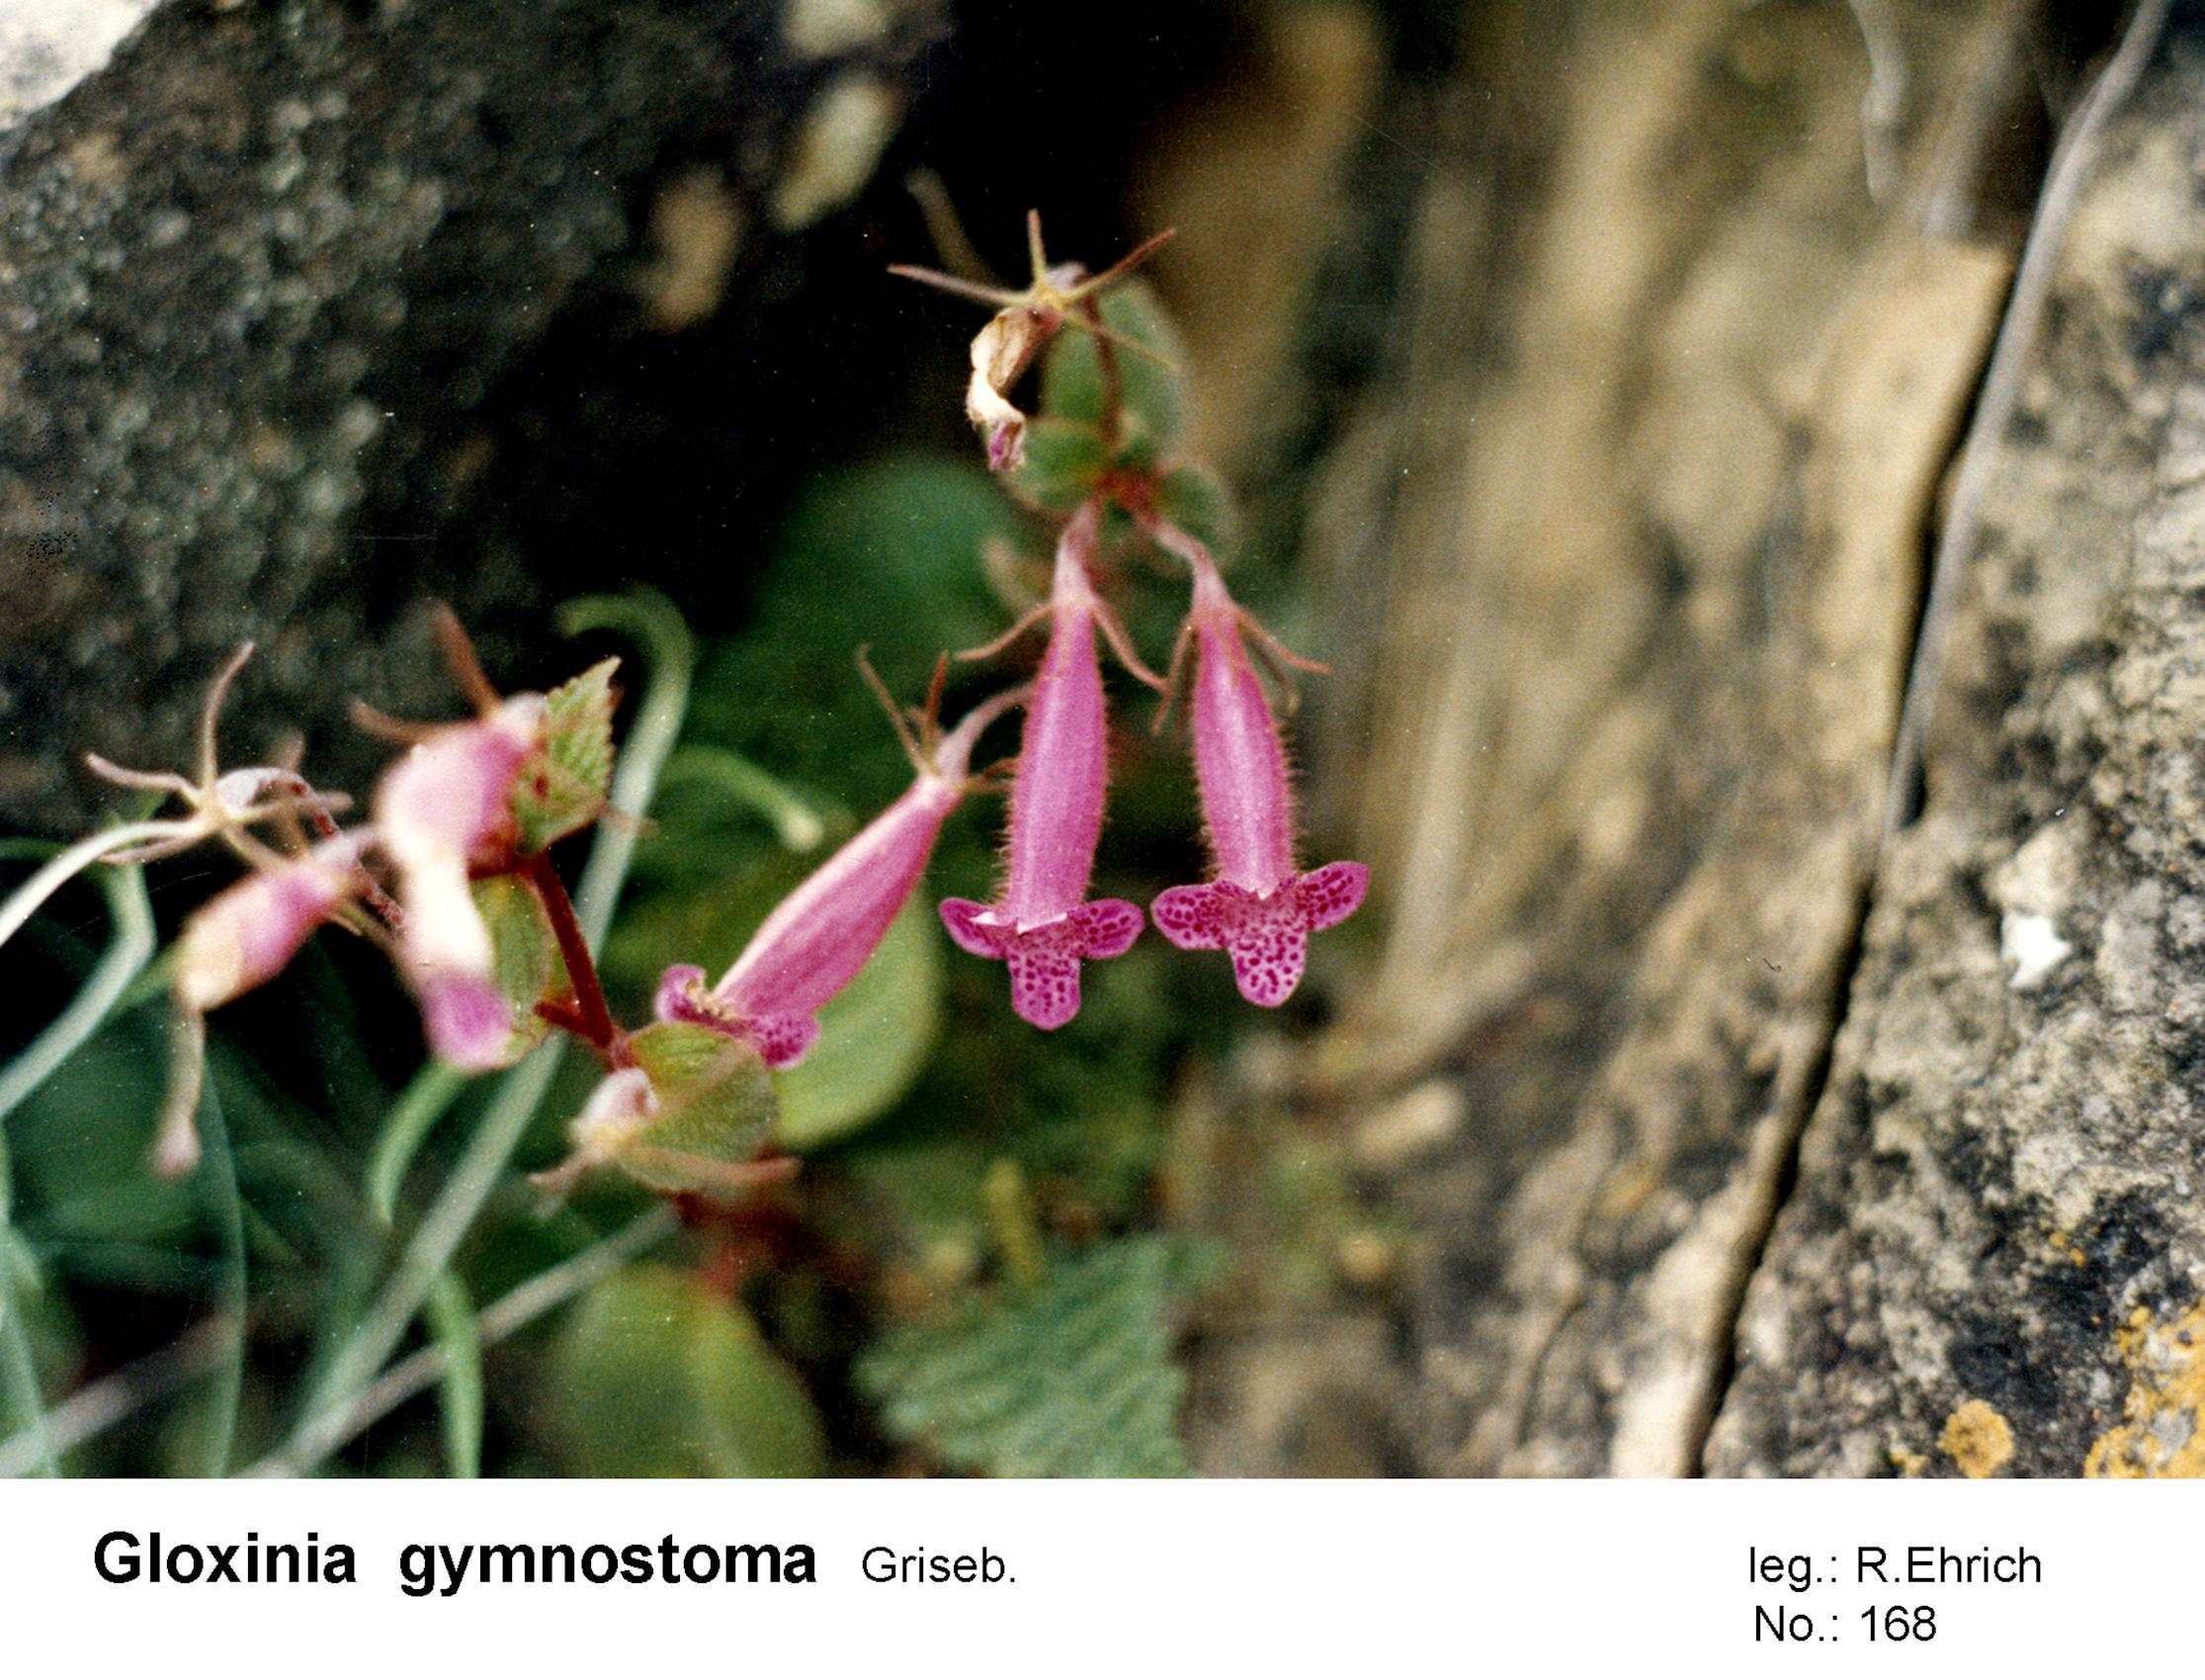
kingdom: Plantae
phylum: Tracheophyta
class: Magnoliopsida
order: Lamiales
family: Gesneriaceae
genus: Seemannia
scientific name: Seemannia gymnostoma
